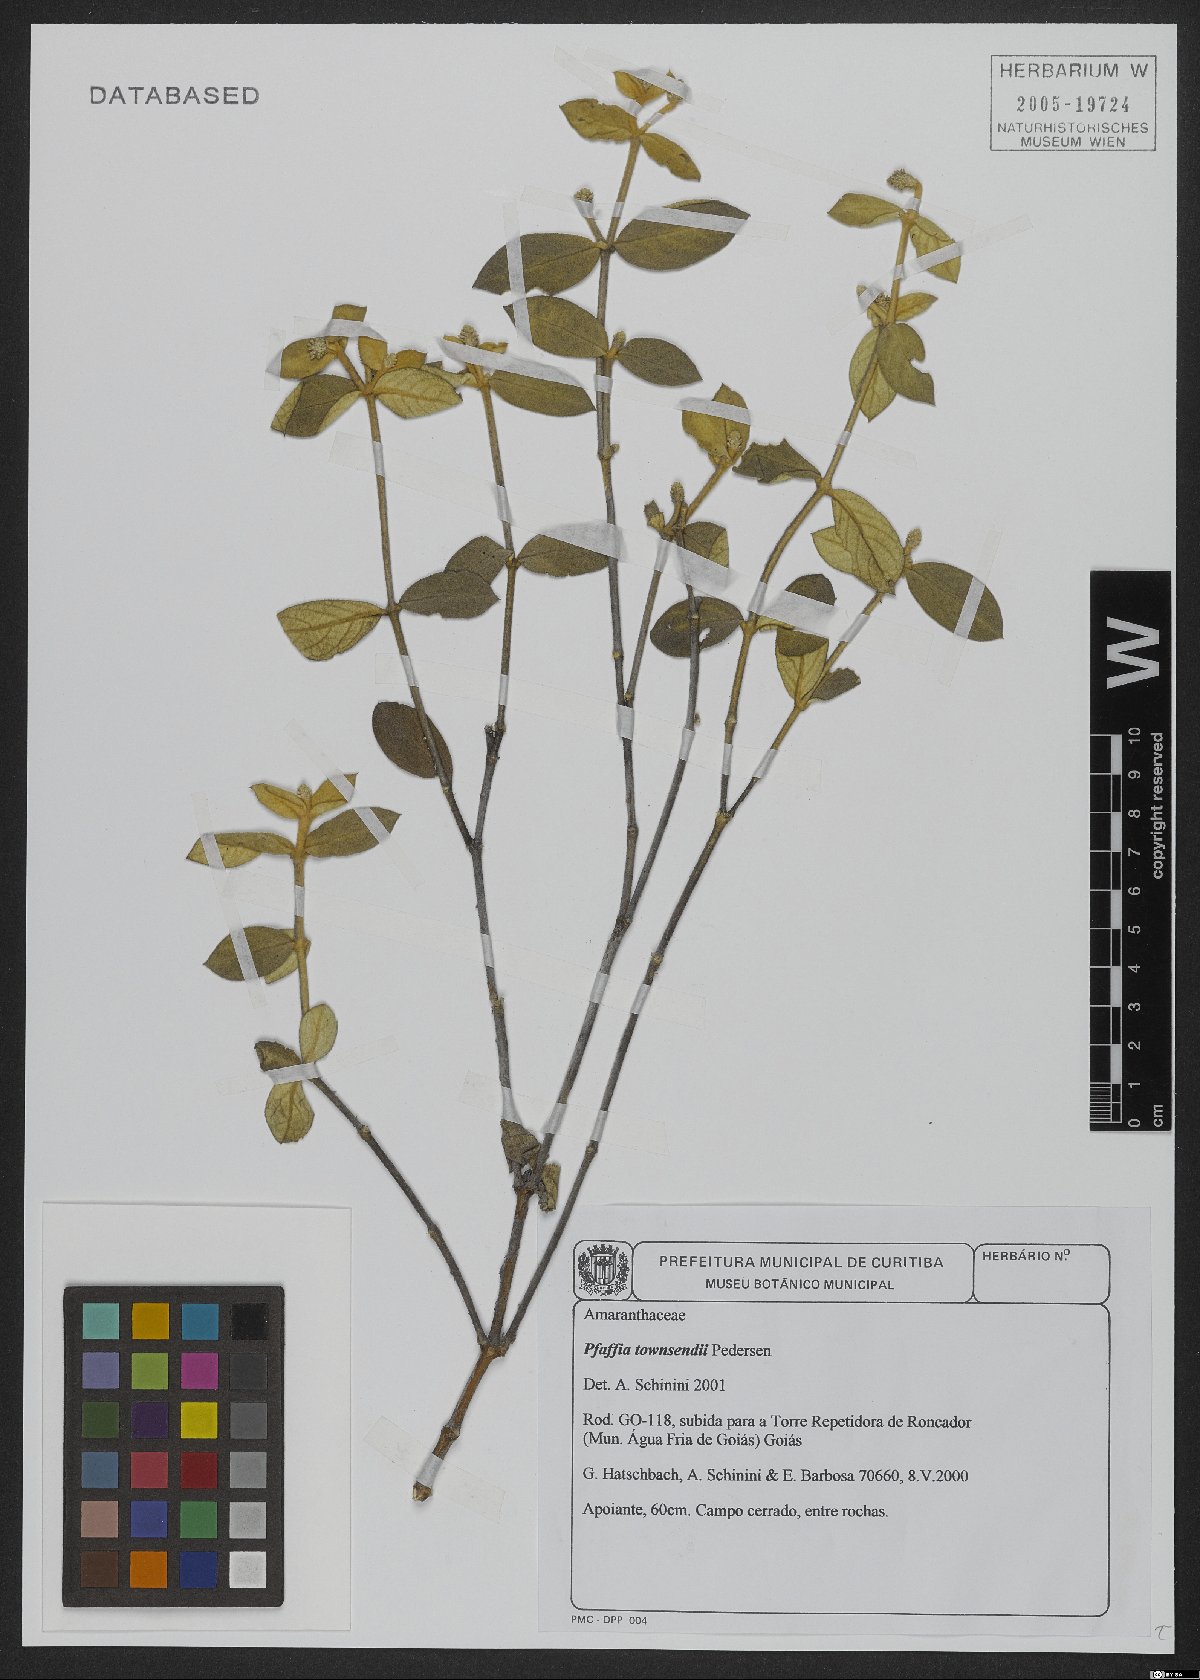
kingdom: Plantae
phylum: Tracheophyta
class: Magnoliopsida
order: Caryophyllales
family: Amaranthaceae
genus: Pfaffia
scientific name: Pfaffia townsendii
